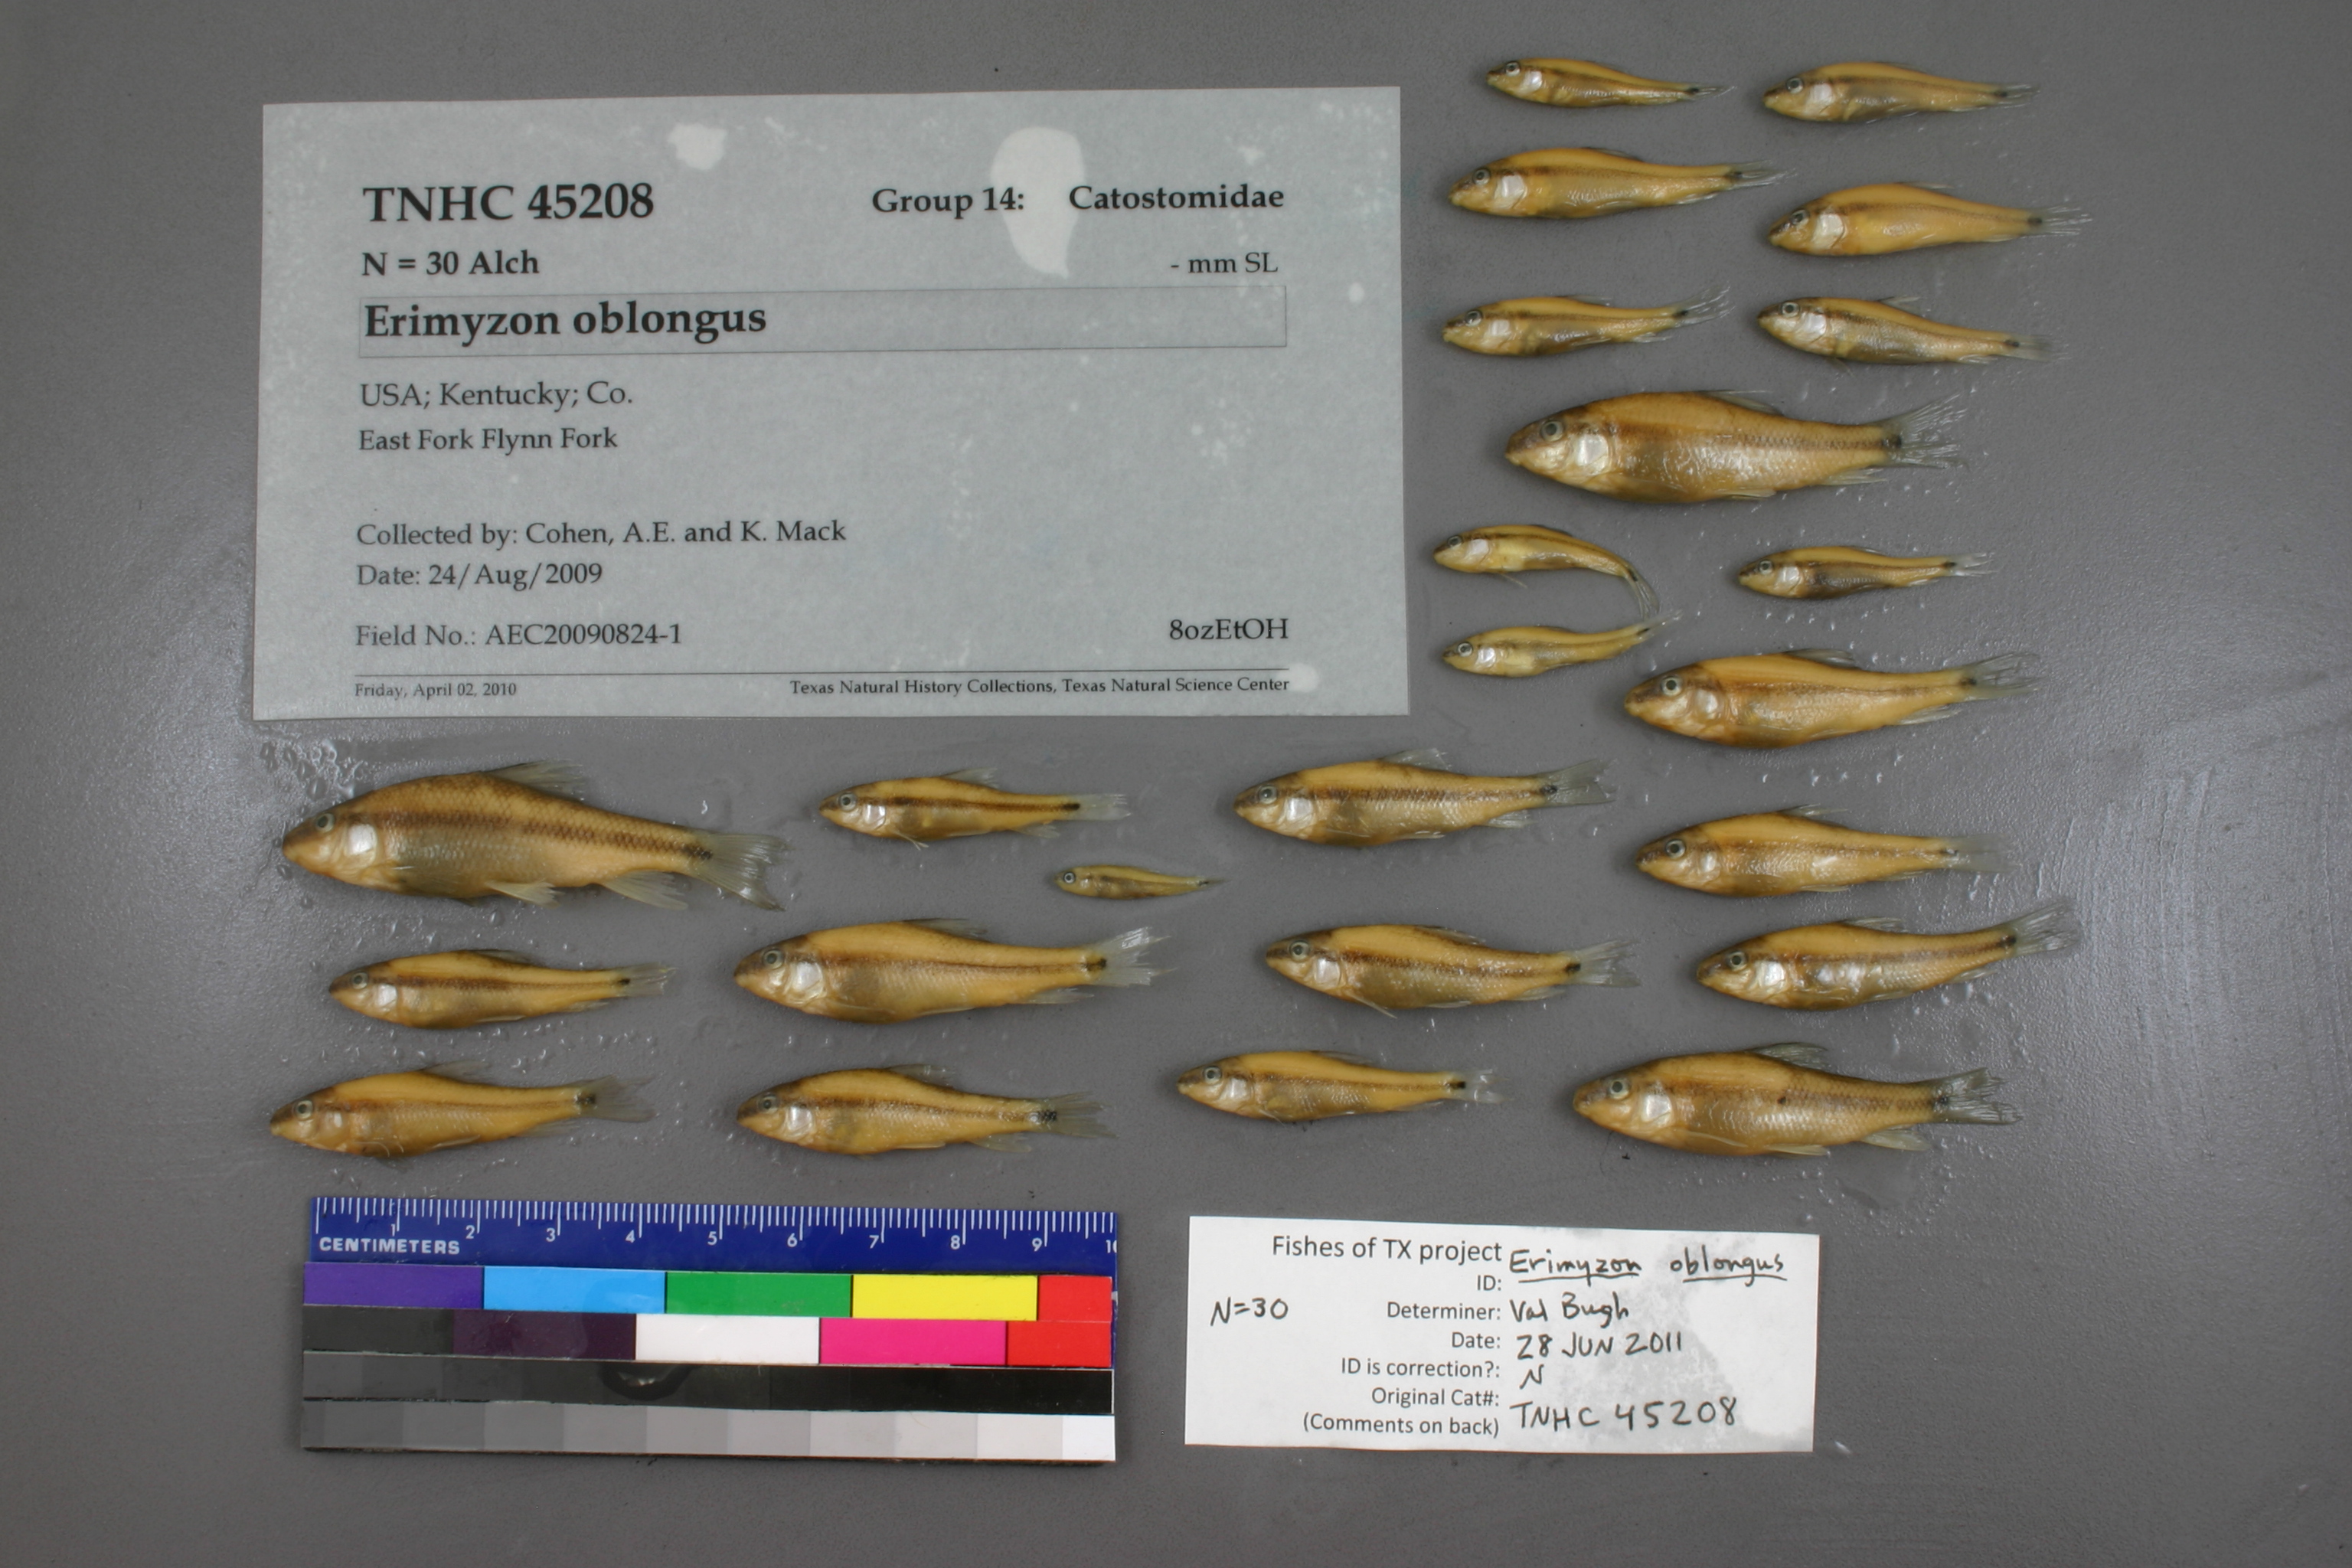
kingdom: Animalia
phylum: Chordata
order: Cypriniformes
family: Catostomidae
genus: Erimyzon
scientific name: Erimyzon oblongus
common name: Eastern creek chubsucker
